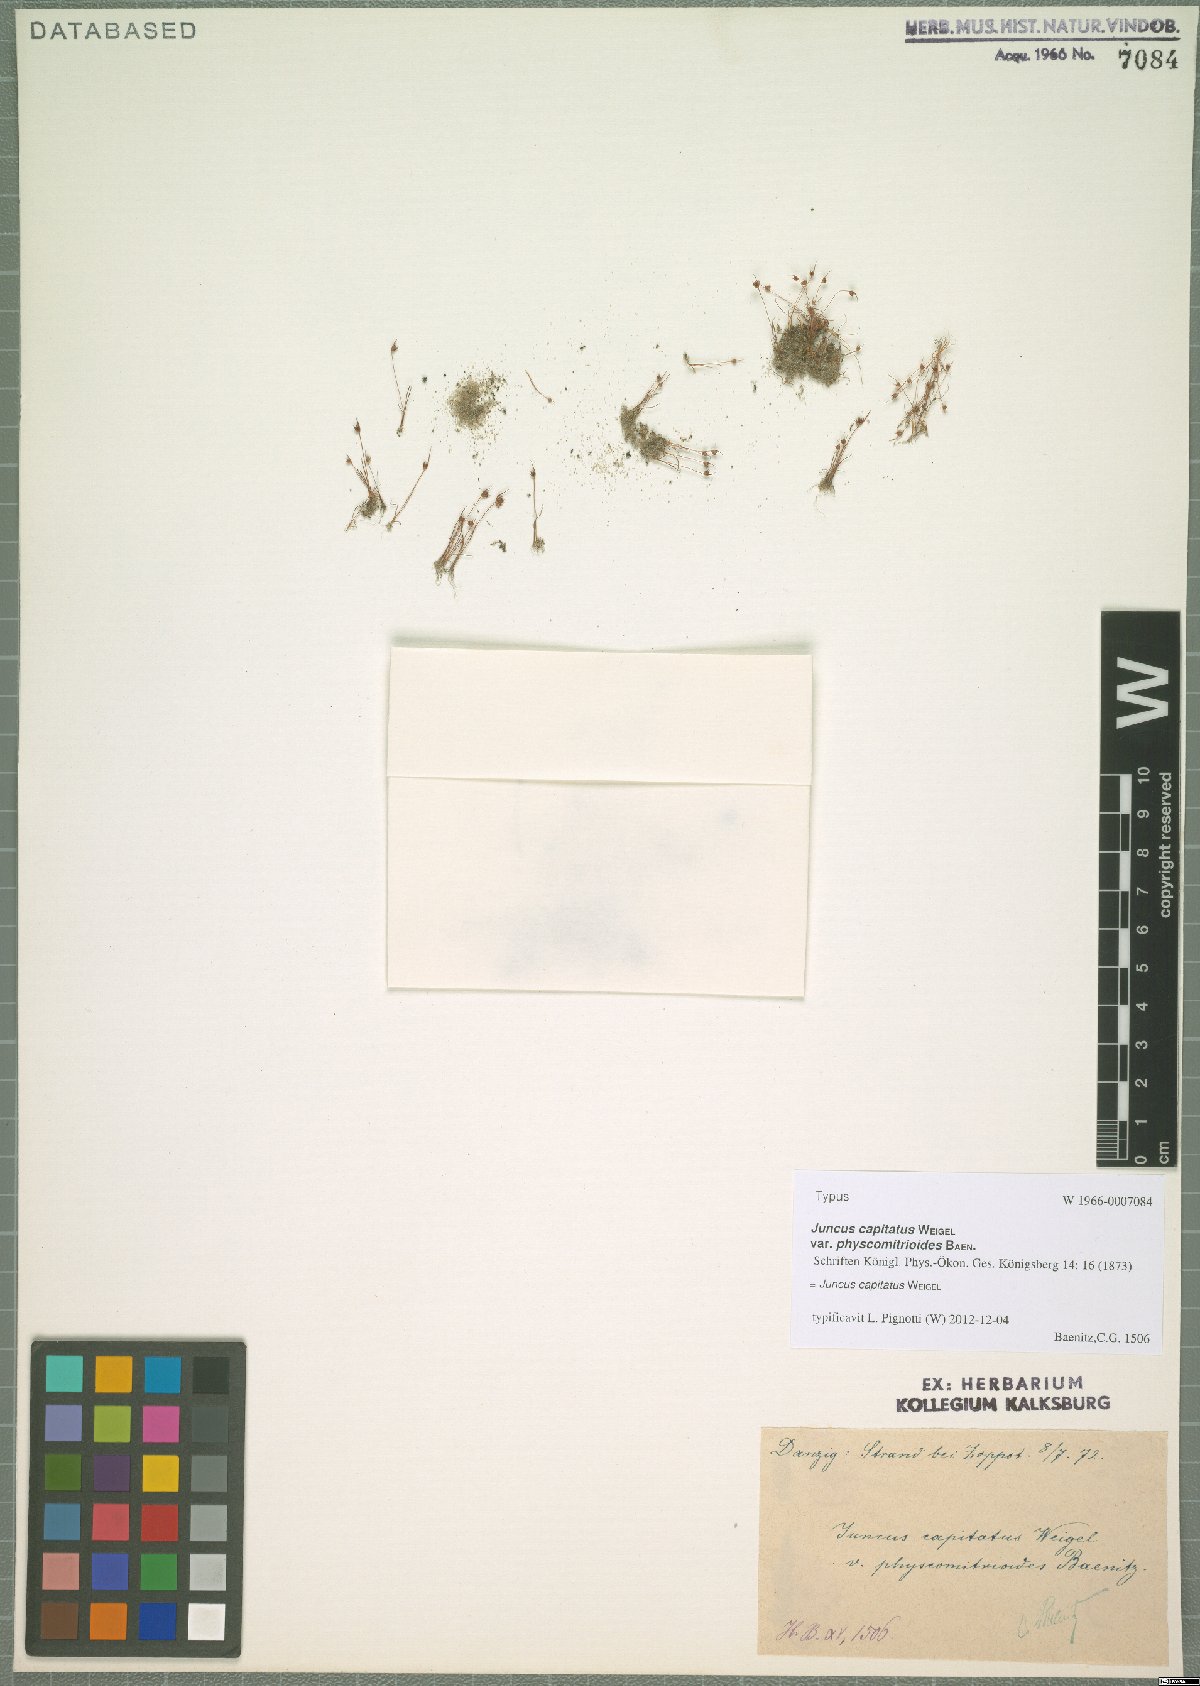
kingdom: Plantae
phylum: Tracheophyta
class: Liliopsida
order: Poales
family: Juncaceae
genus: Juncus
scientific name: Juncus capitatus
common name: Dwarf rush
